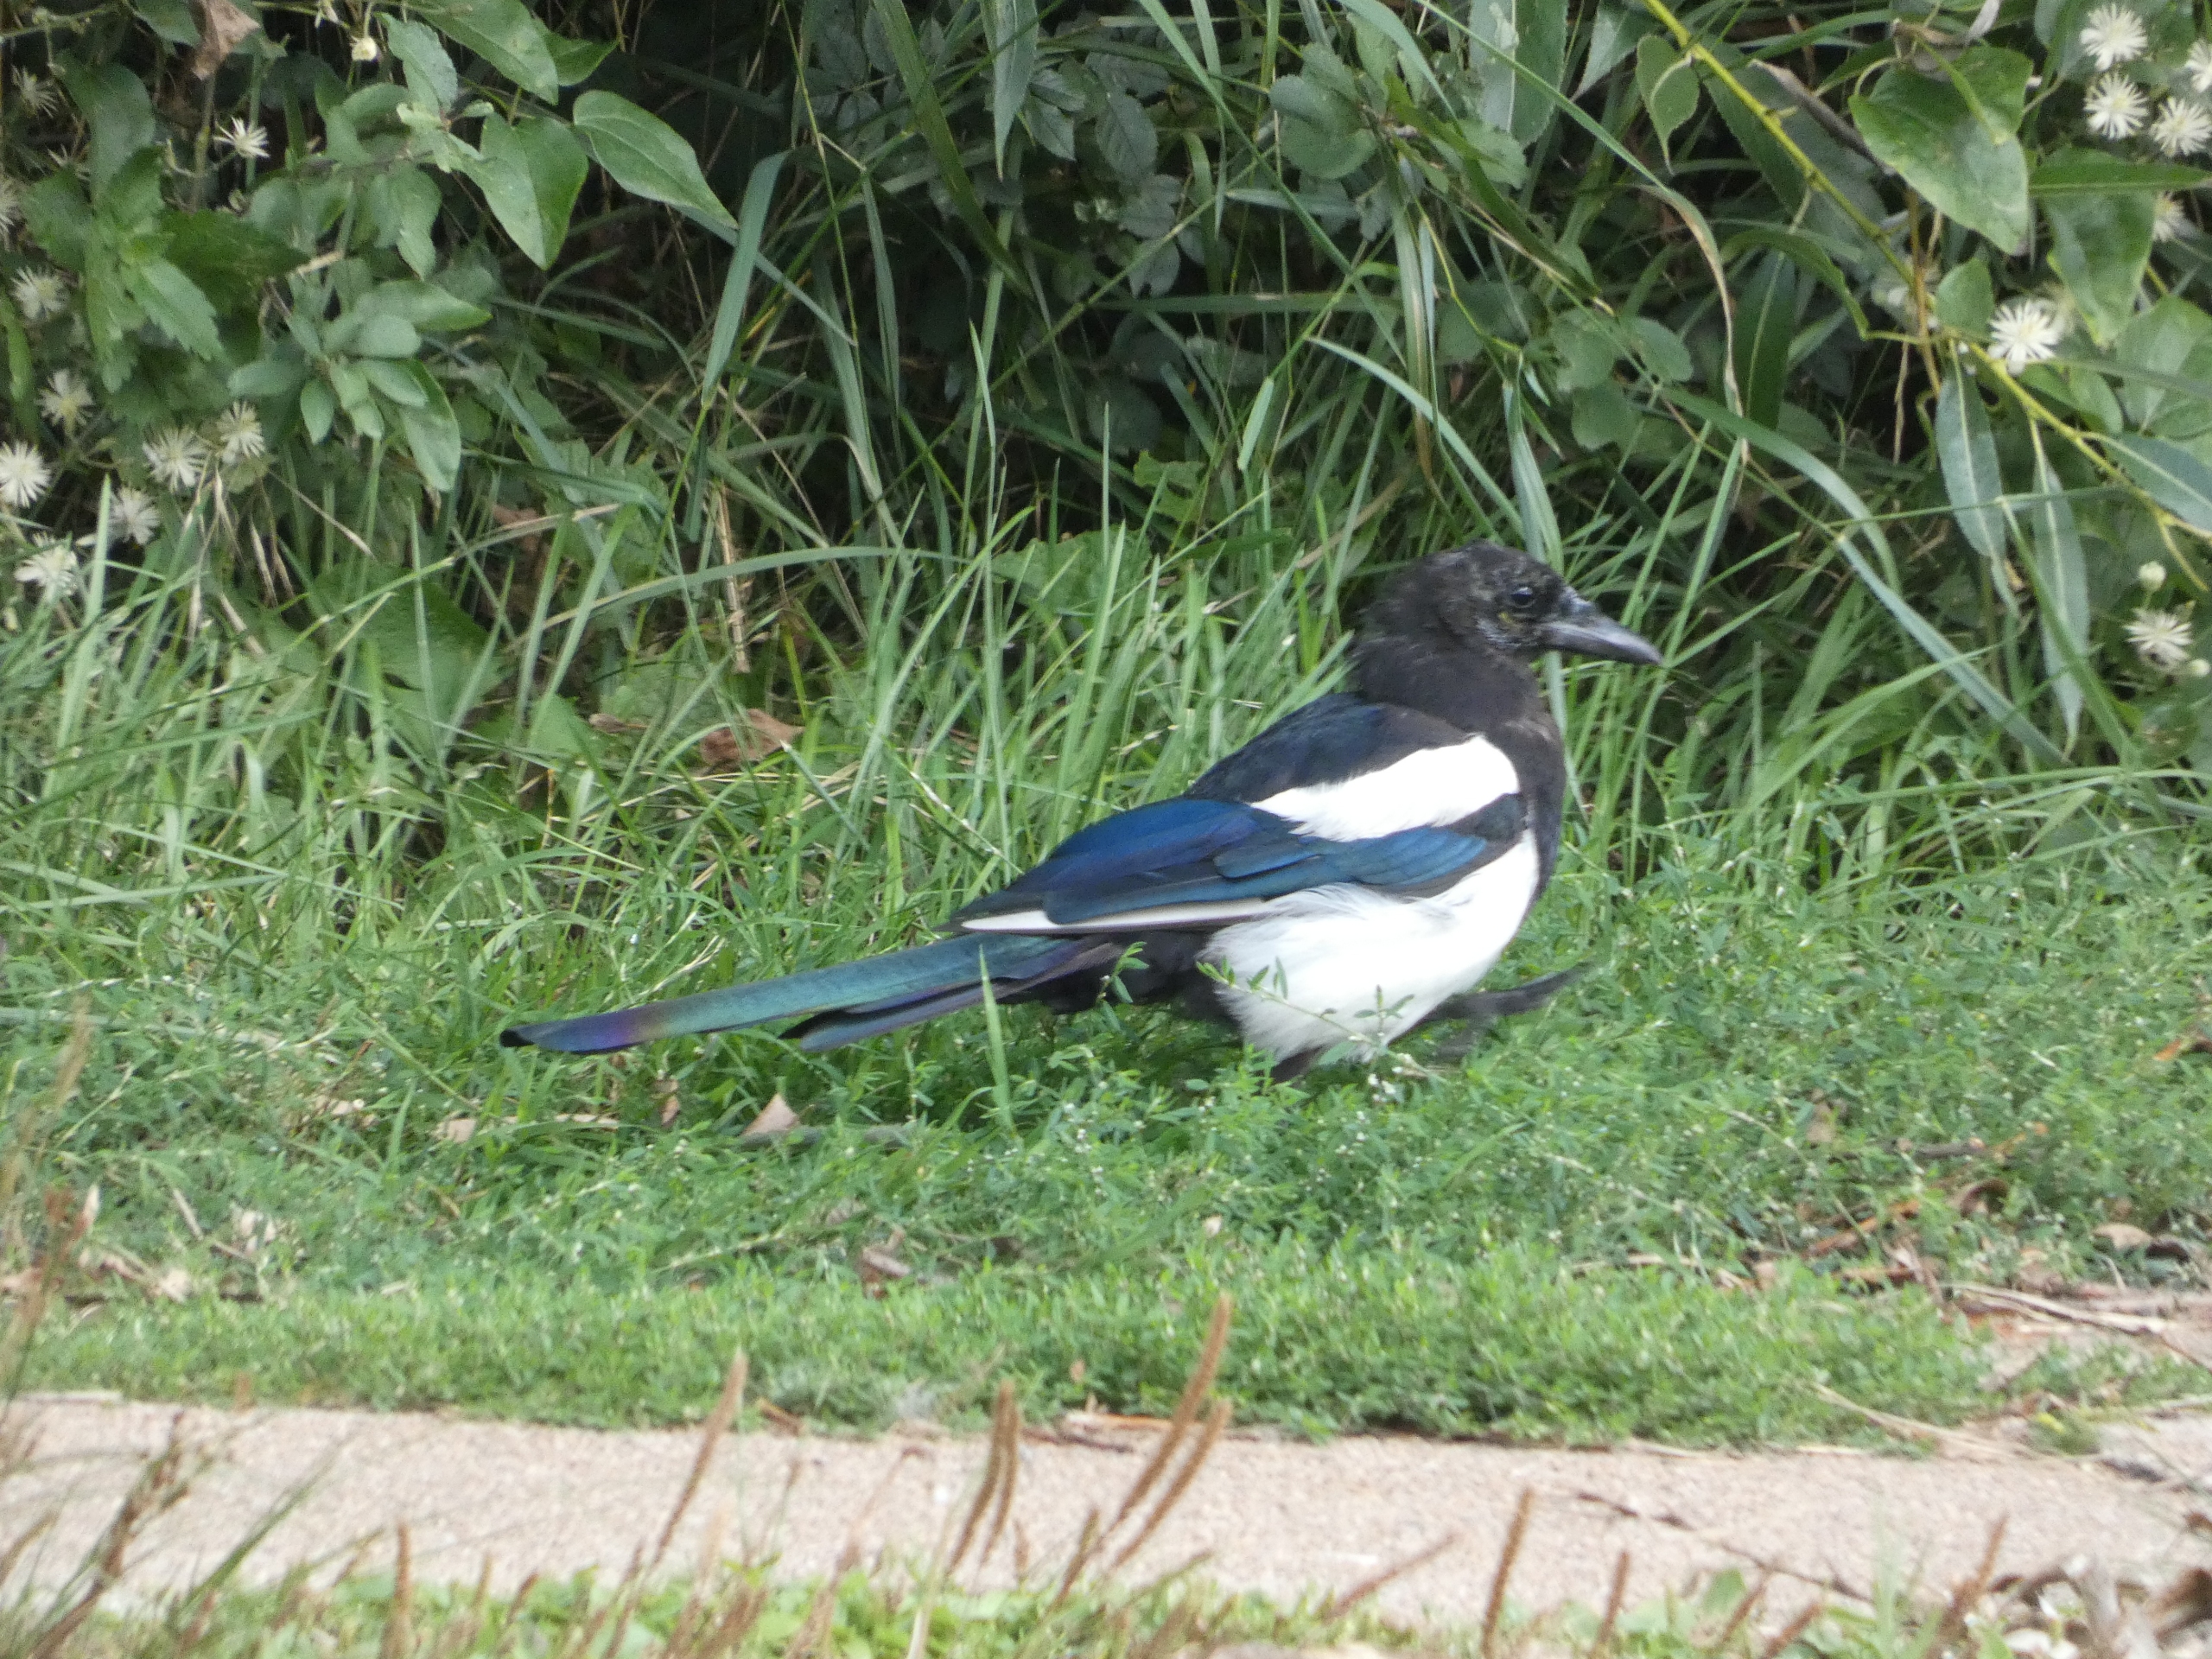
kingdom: Animalia
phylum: Chordata
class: Aves
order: Passeriformes
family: Corvidae
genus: Pica
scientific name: Pica pica
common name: Husskade
